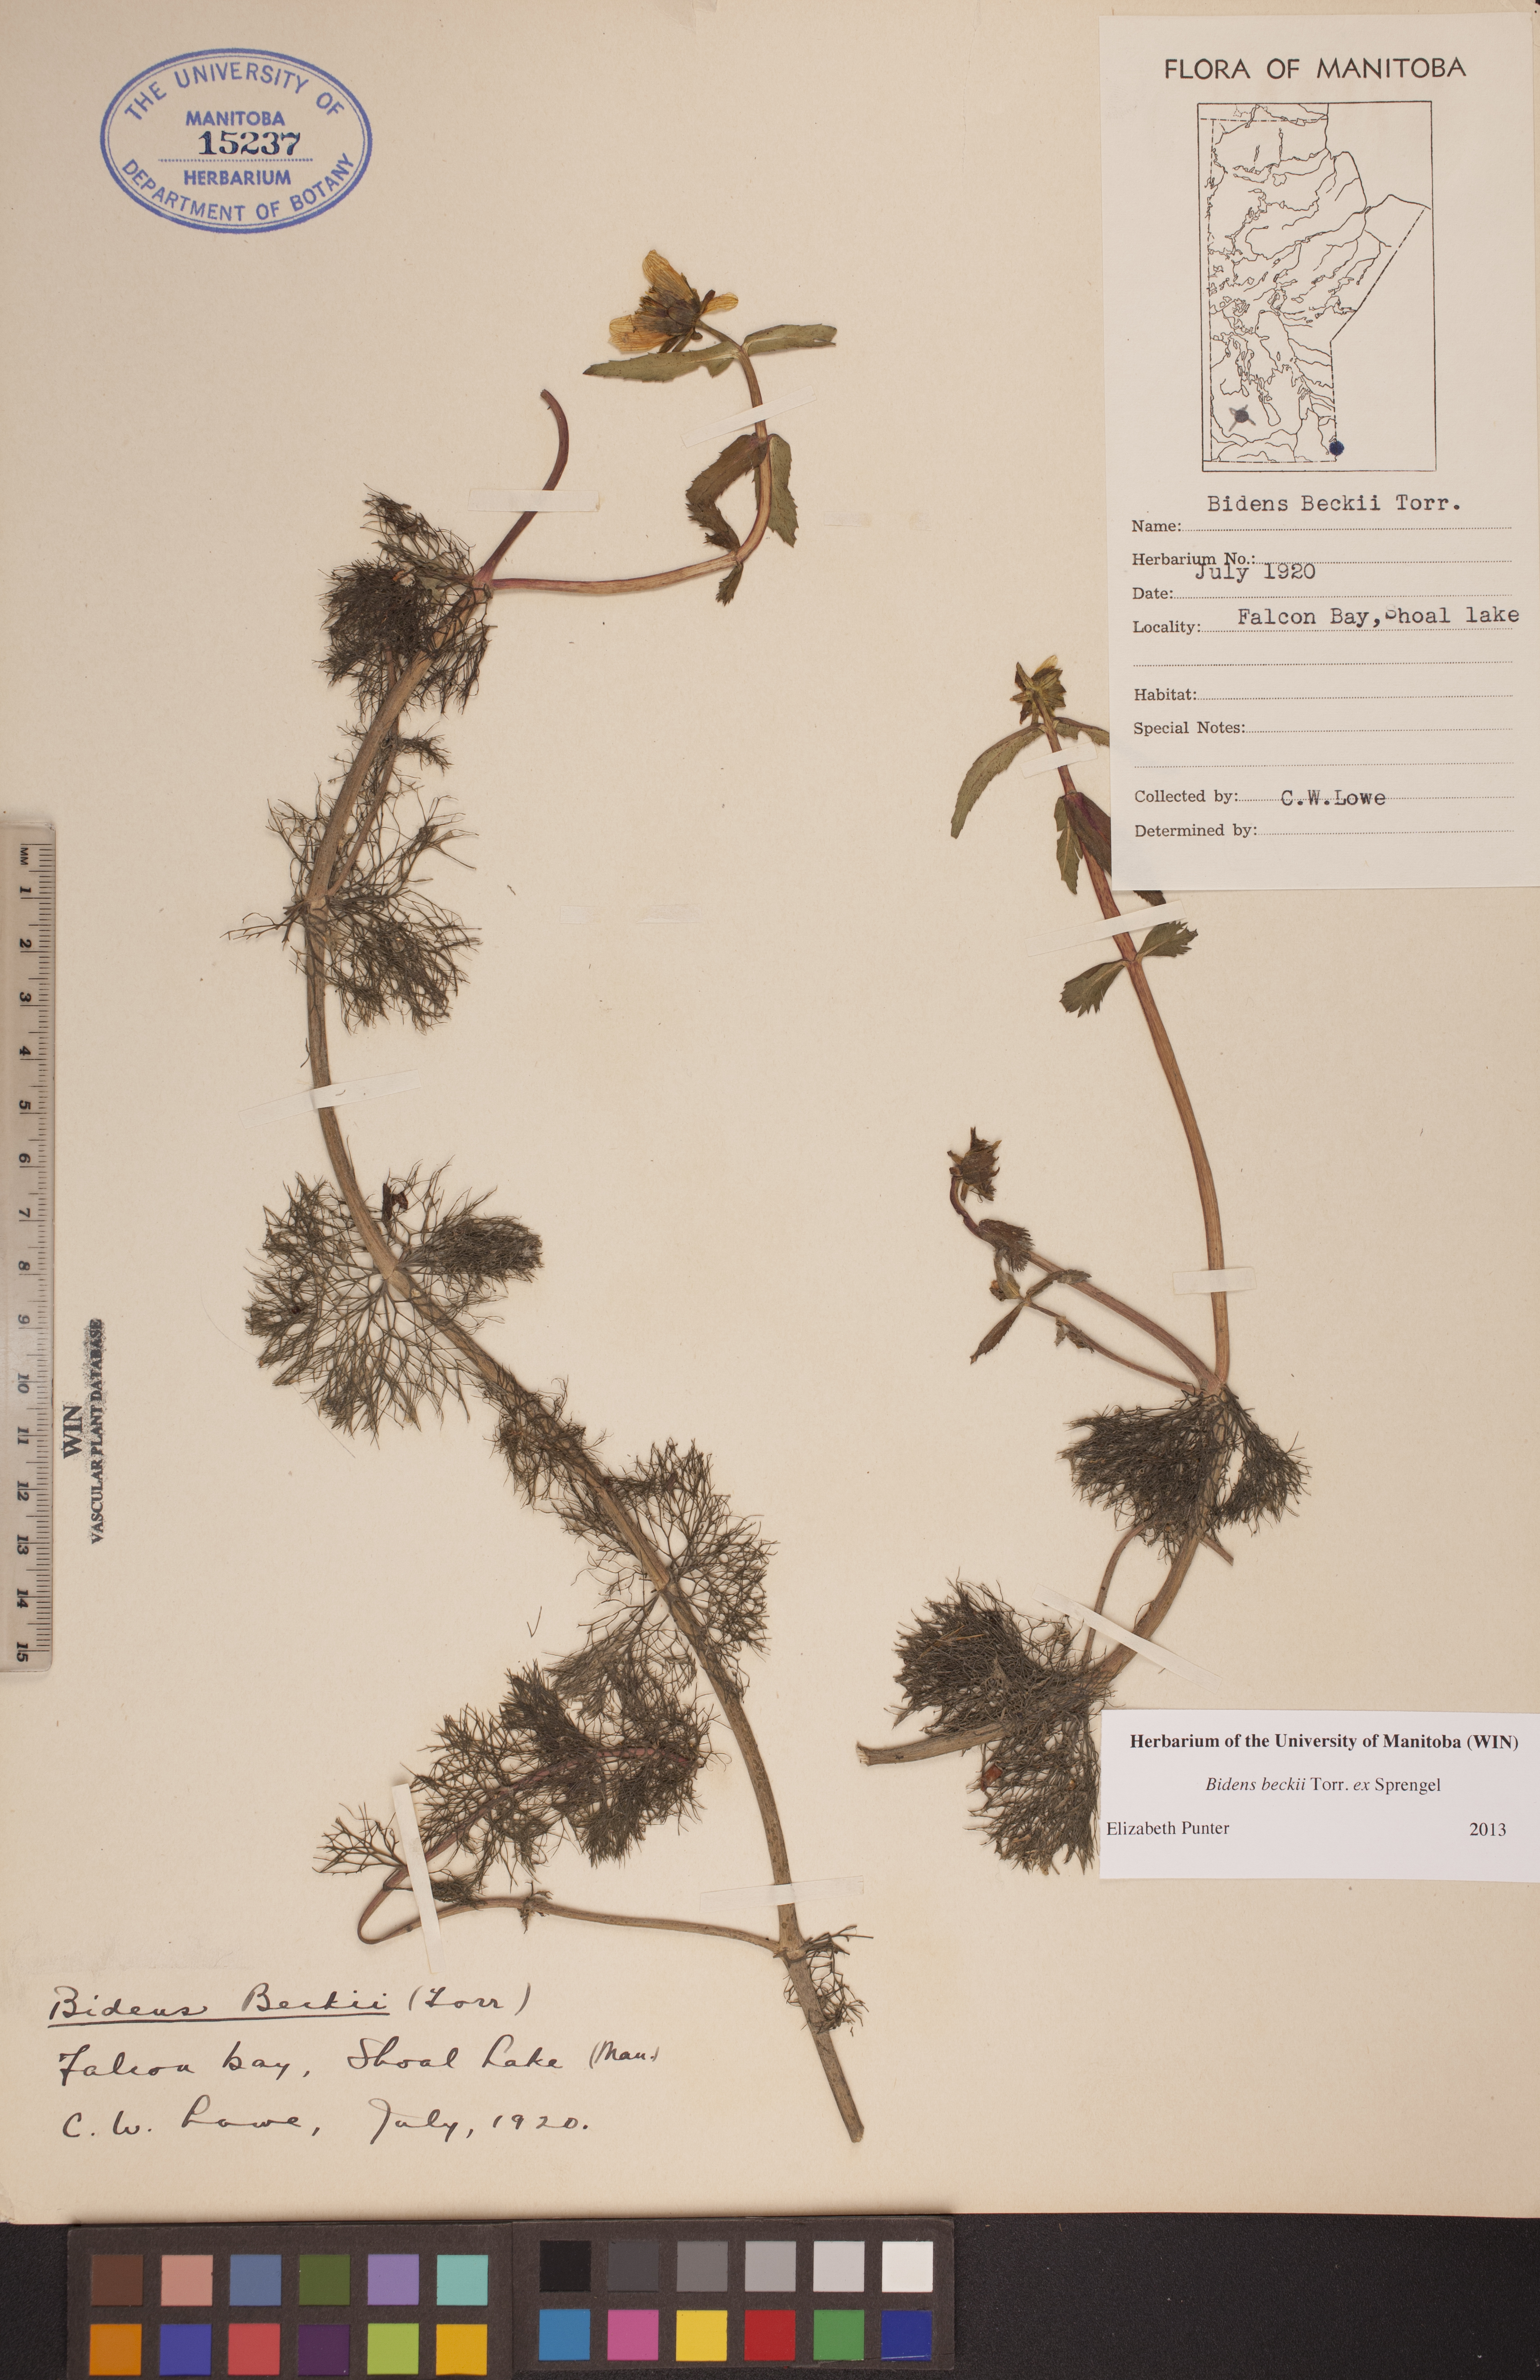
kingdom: Plantae
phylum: Tracheophyta
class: Magnoliopsida
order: Asterales
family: Asteraceae
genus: Bidens
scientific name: Bidens beckii
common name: Beck's beggarticks
